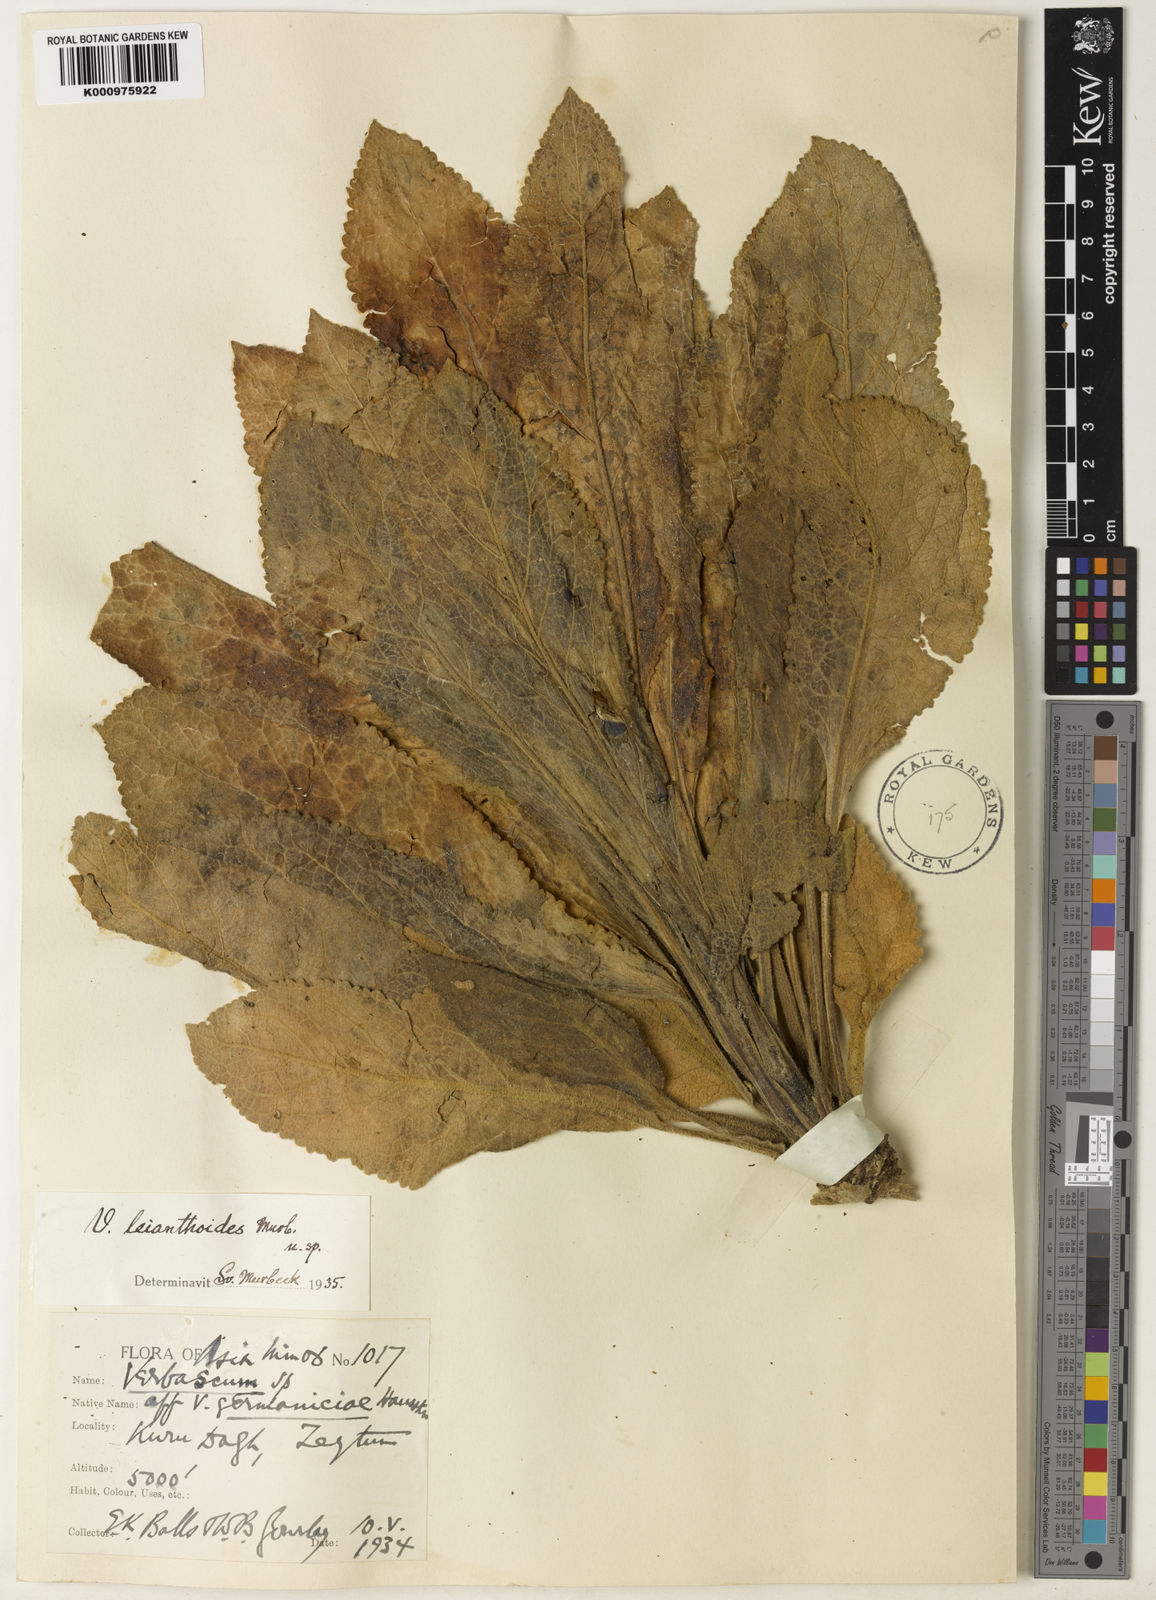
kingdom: Plantae
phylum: Tracheophyta
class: Magnoliopsida
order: Lamiales
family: Scrophulariaceae
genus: Verbascum
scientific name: Verbascum leianthoides
